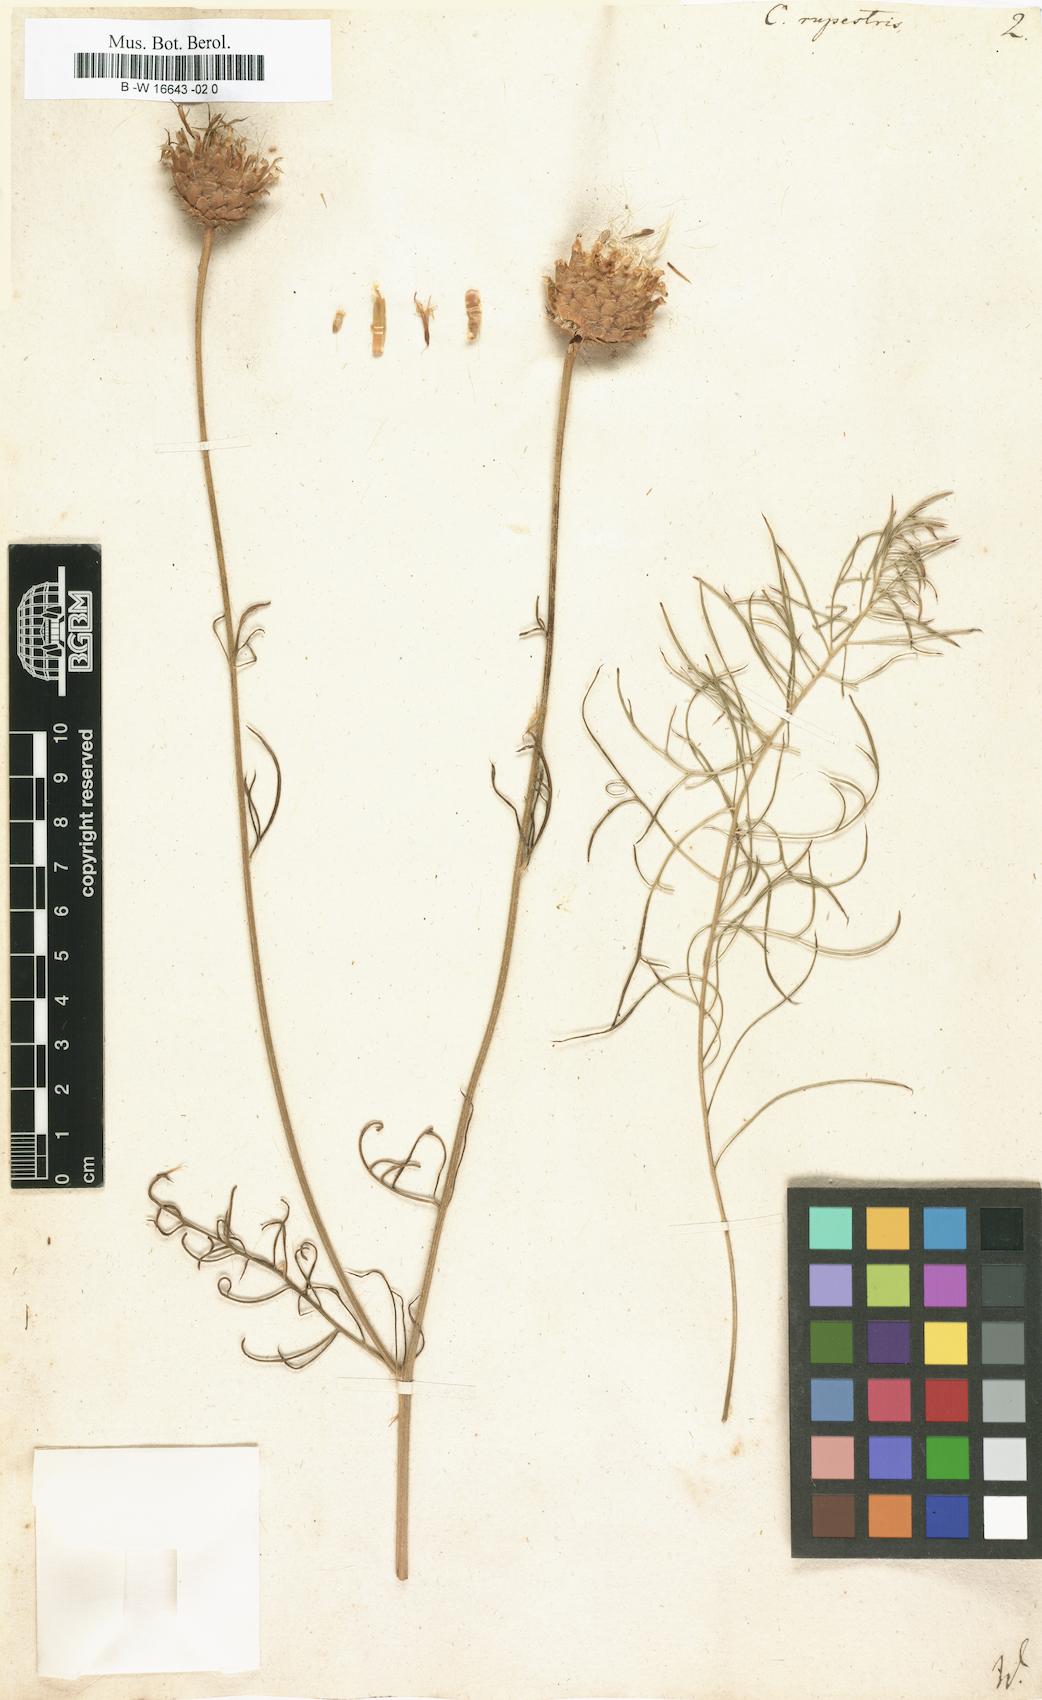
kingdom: Plantae
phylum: Tracheophyta
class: Magnoliopsida
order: Asterales
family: Asteraceae
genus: Centaurea
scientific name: Centaurea rupestris
